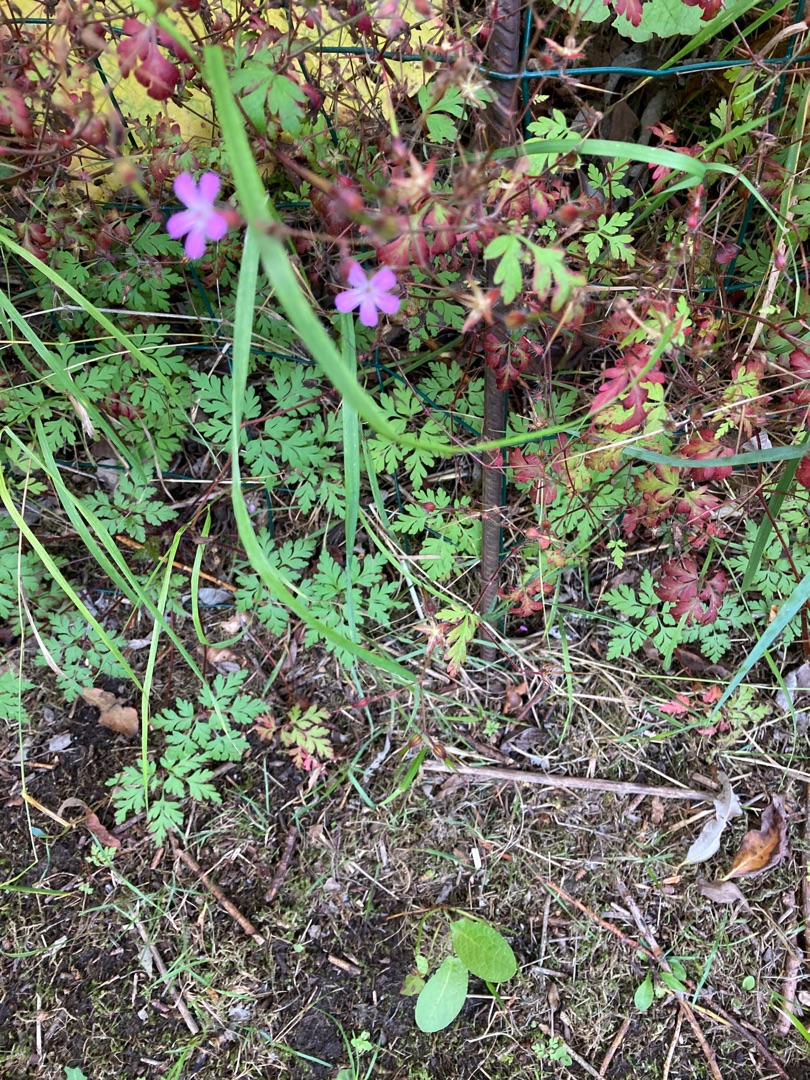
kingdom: Plantae
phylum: Tracheophyta
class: Magnoliopsida
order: Geraniales
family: Geraniaceae
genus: Geranium
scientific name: Geranium robertianum
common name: Stinkende storkenæb
